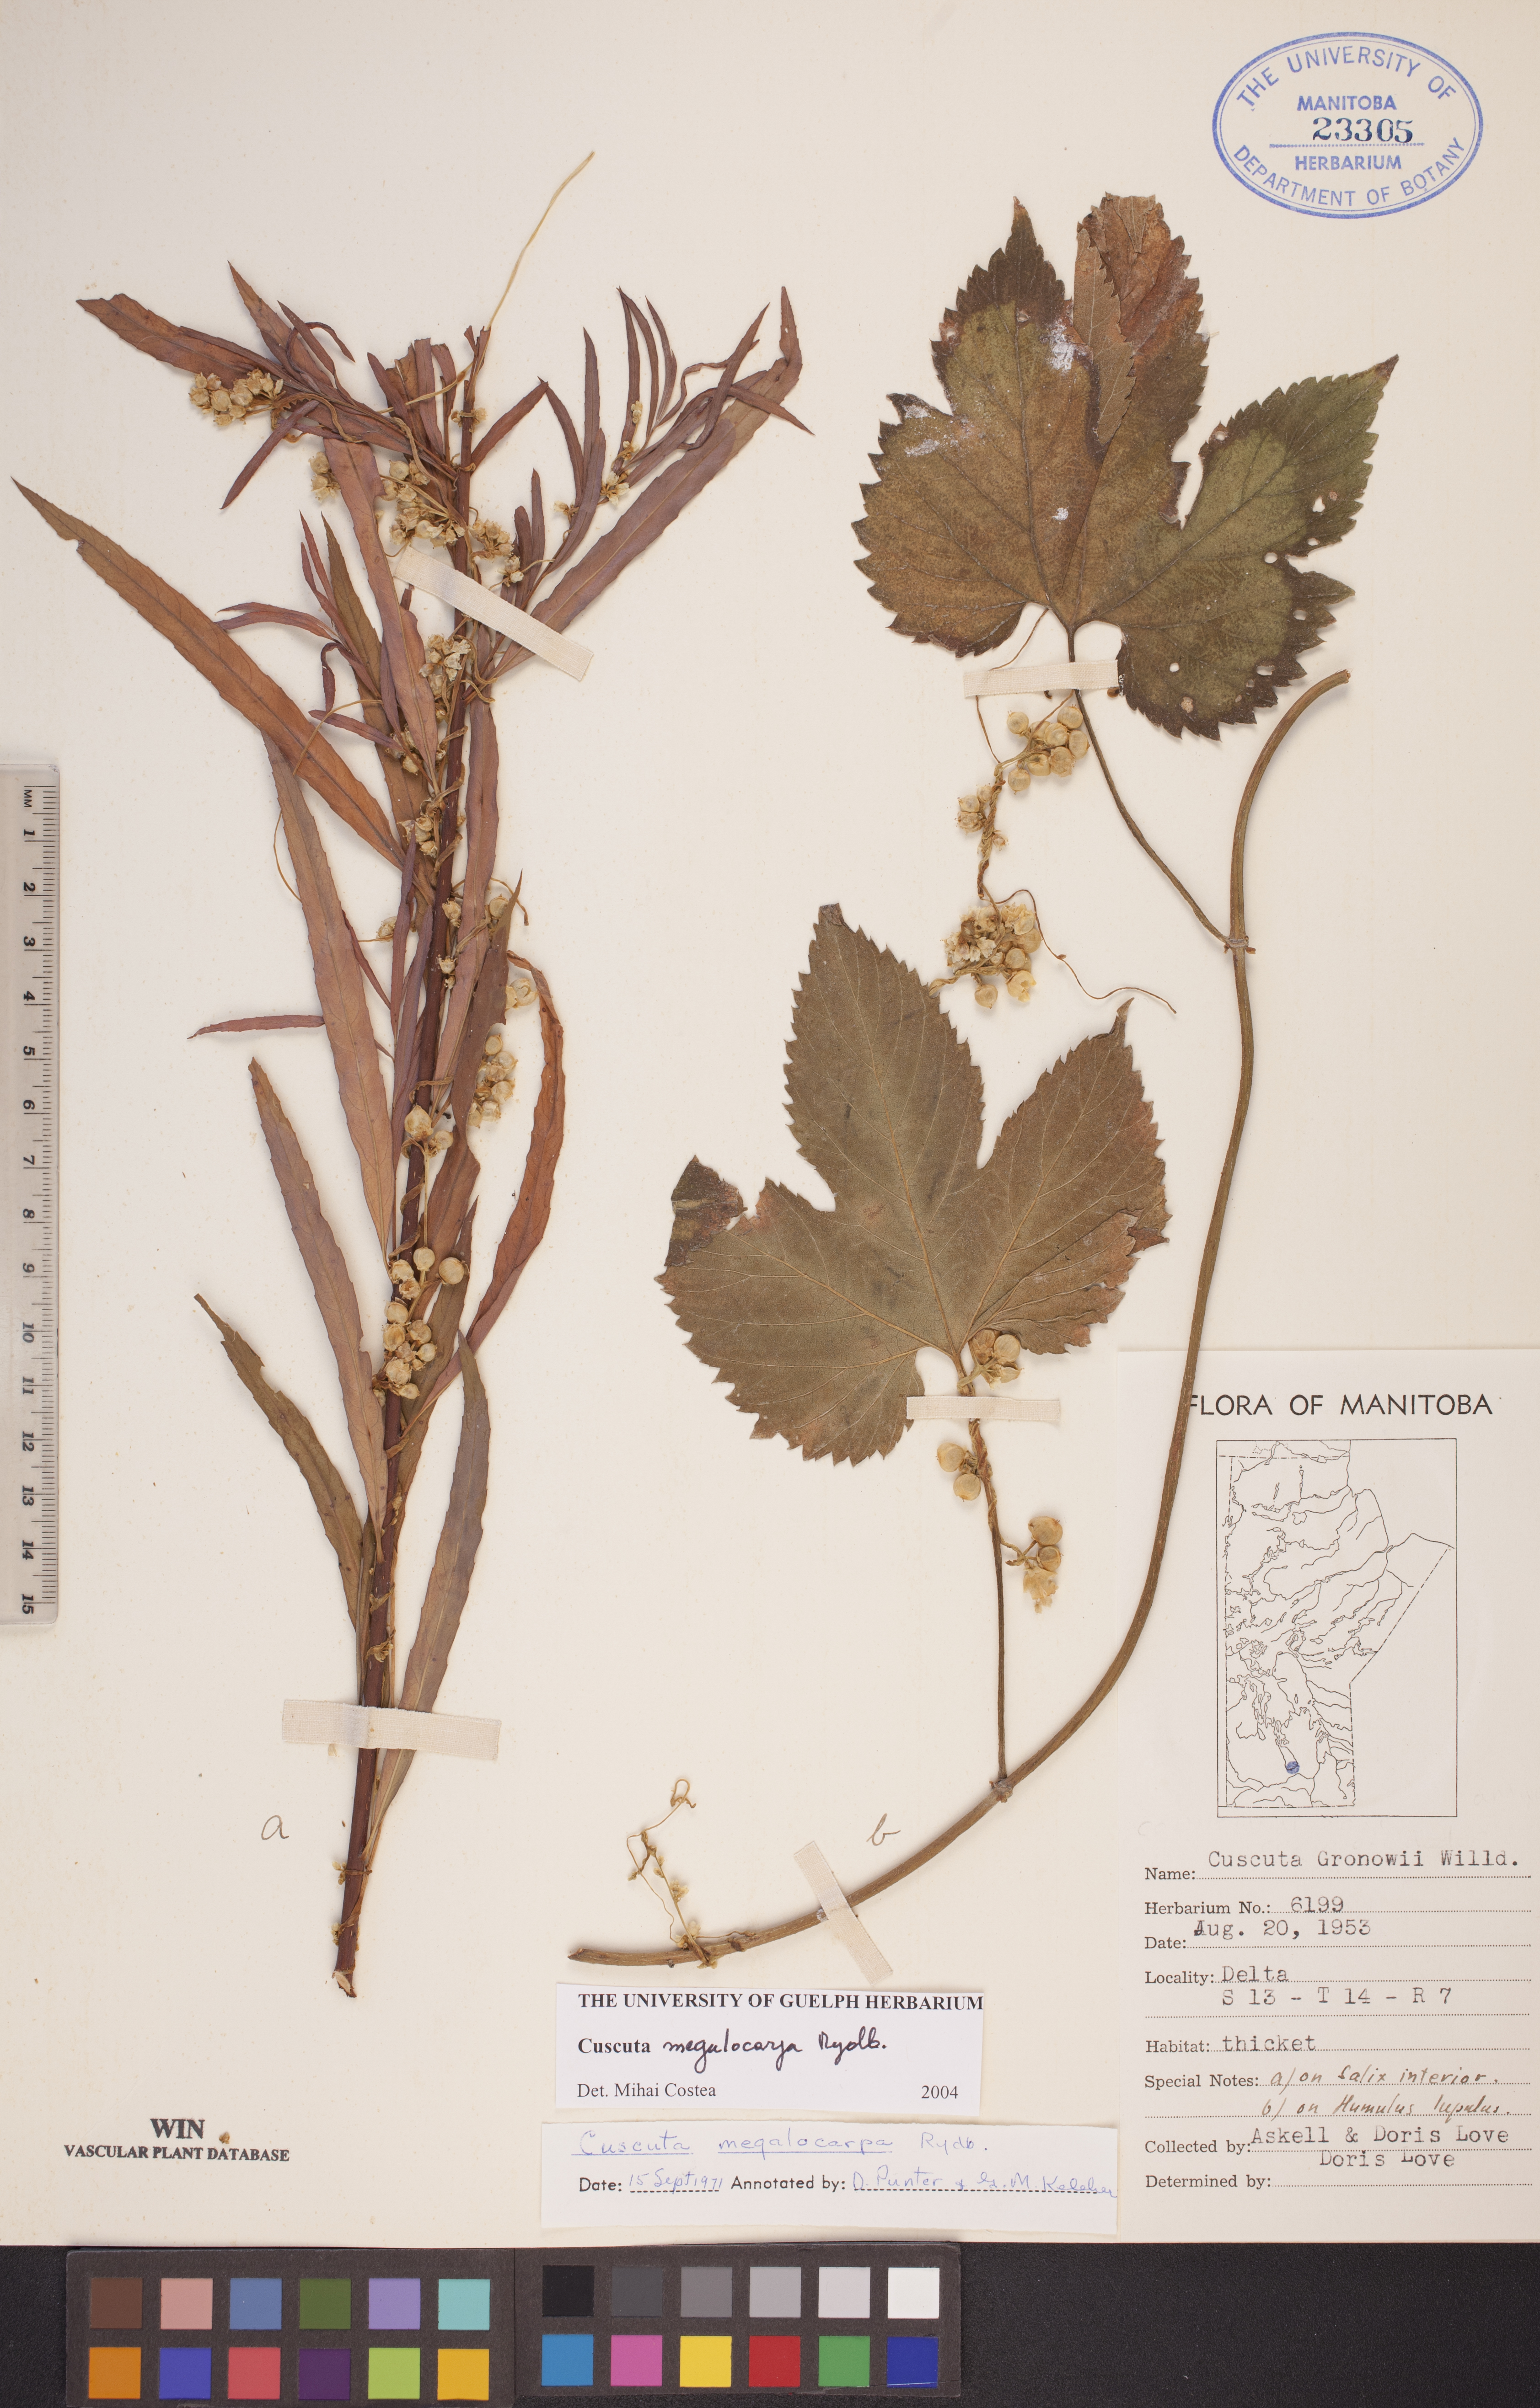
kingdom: Plantae
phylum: Tracheophyta
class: Magnoliopsida
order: Solanales
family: Convolvulaceae
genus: Cuscuta
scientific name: Cuscuta umbrosa
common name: Bigfruit dodder
